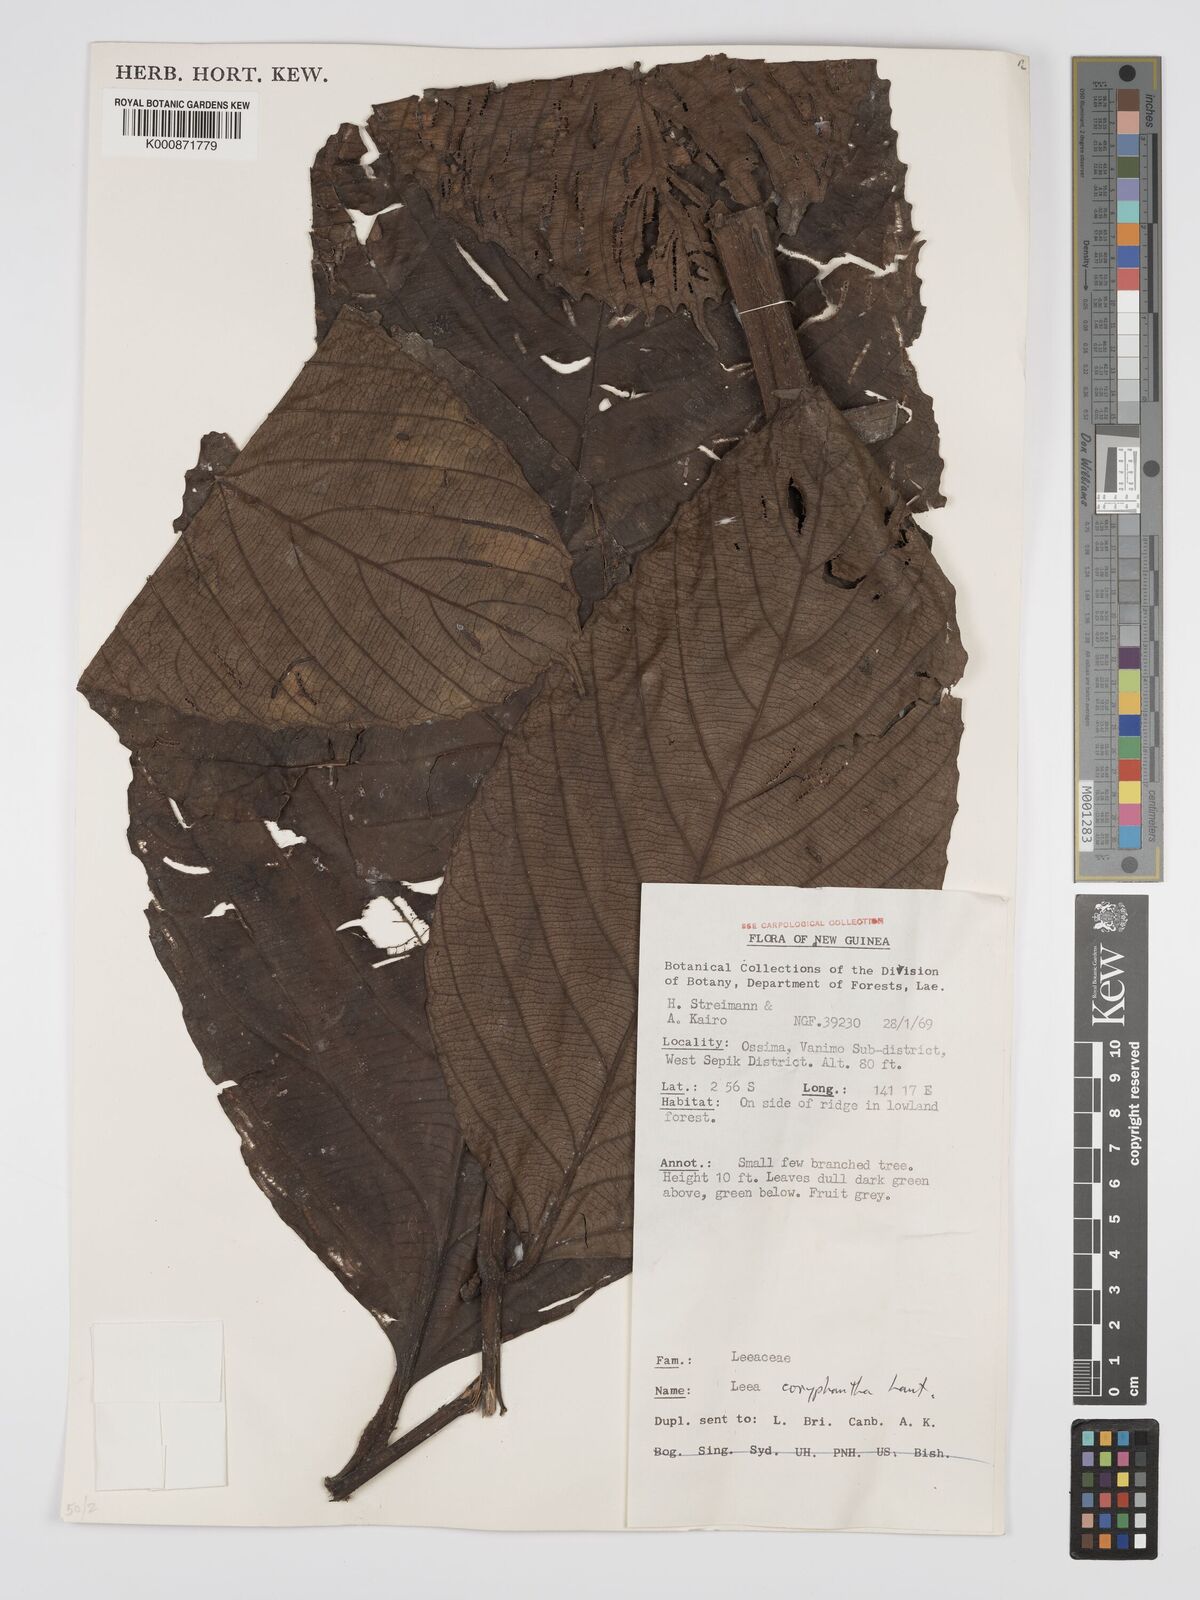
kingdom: Plantae
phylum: Tracheophyta
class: Magnoliopsida
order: Vitales
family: Vitaceae
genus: Leea
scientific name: Leea coryphantha
